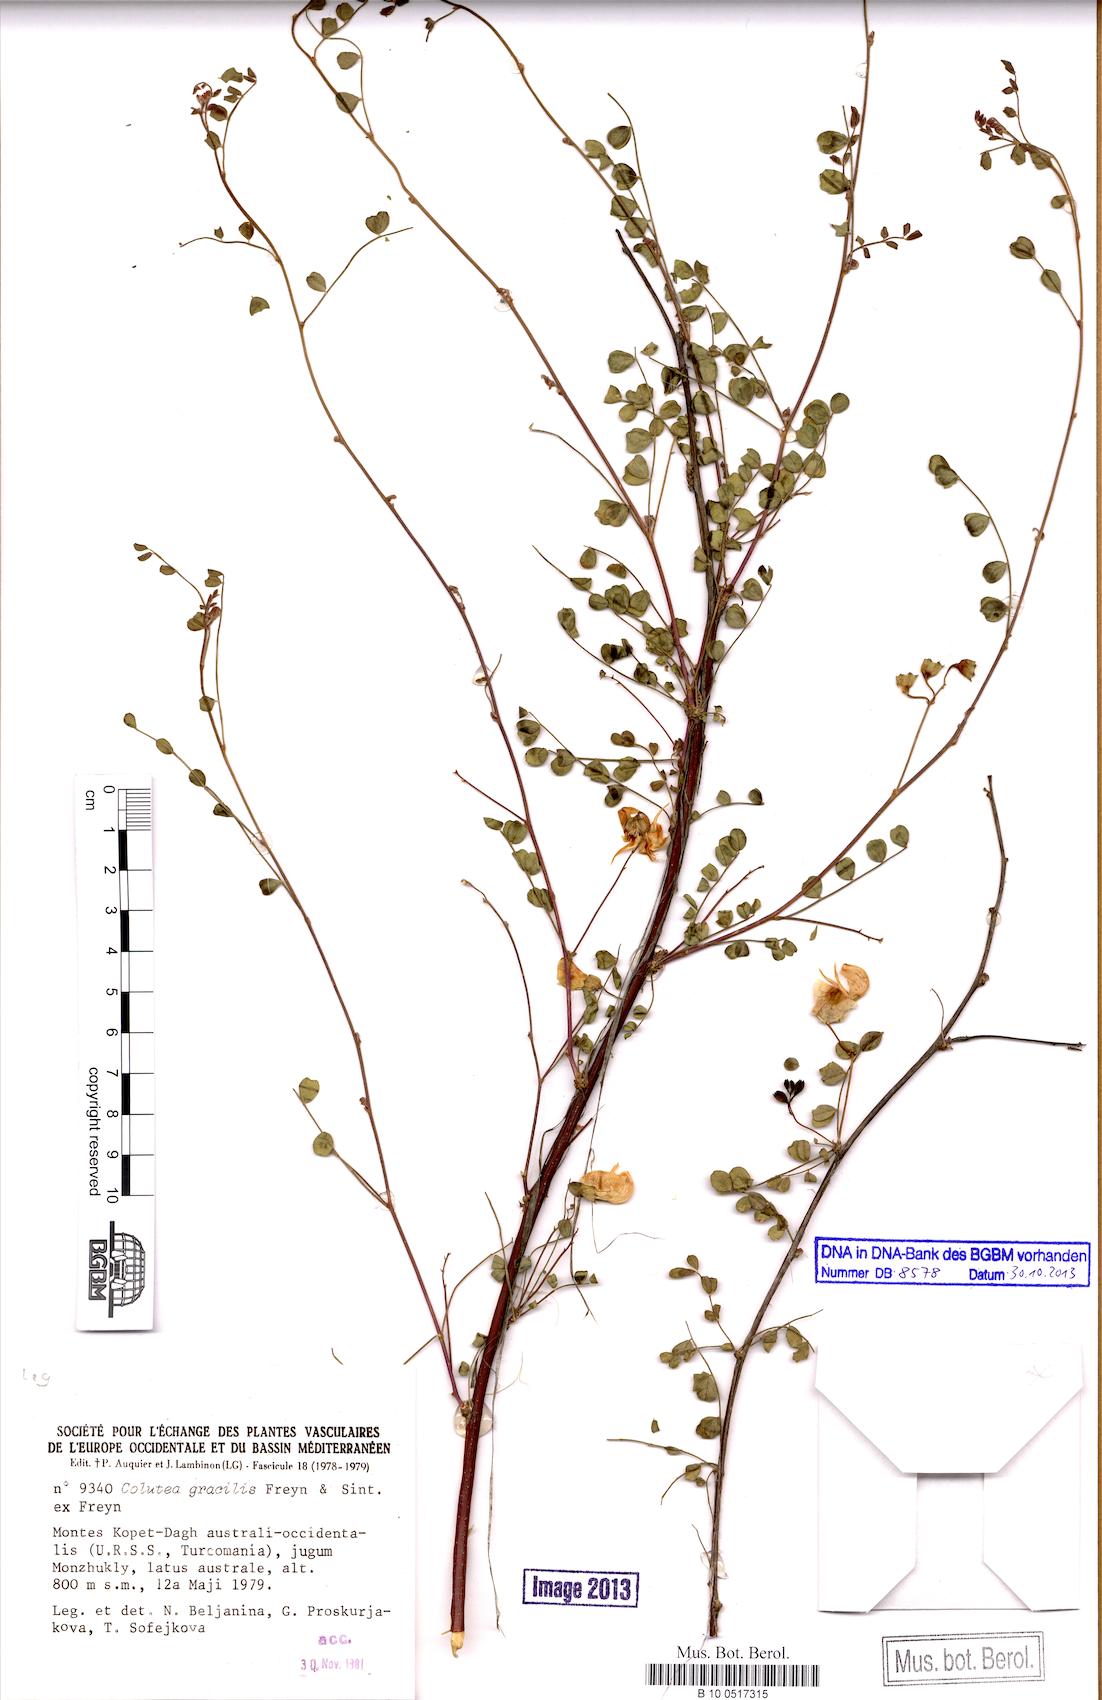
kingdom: Plantae
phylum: Tracheophyta
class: Magnoliopsida
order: Fabales
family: Fabaceae
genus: Colutea
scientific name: Colutea gracilis
